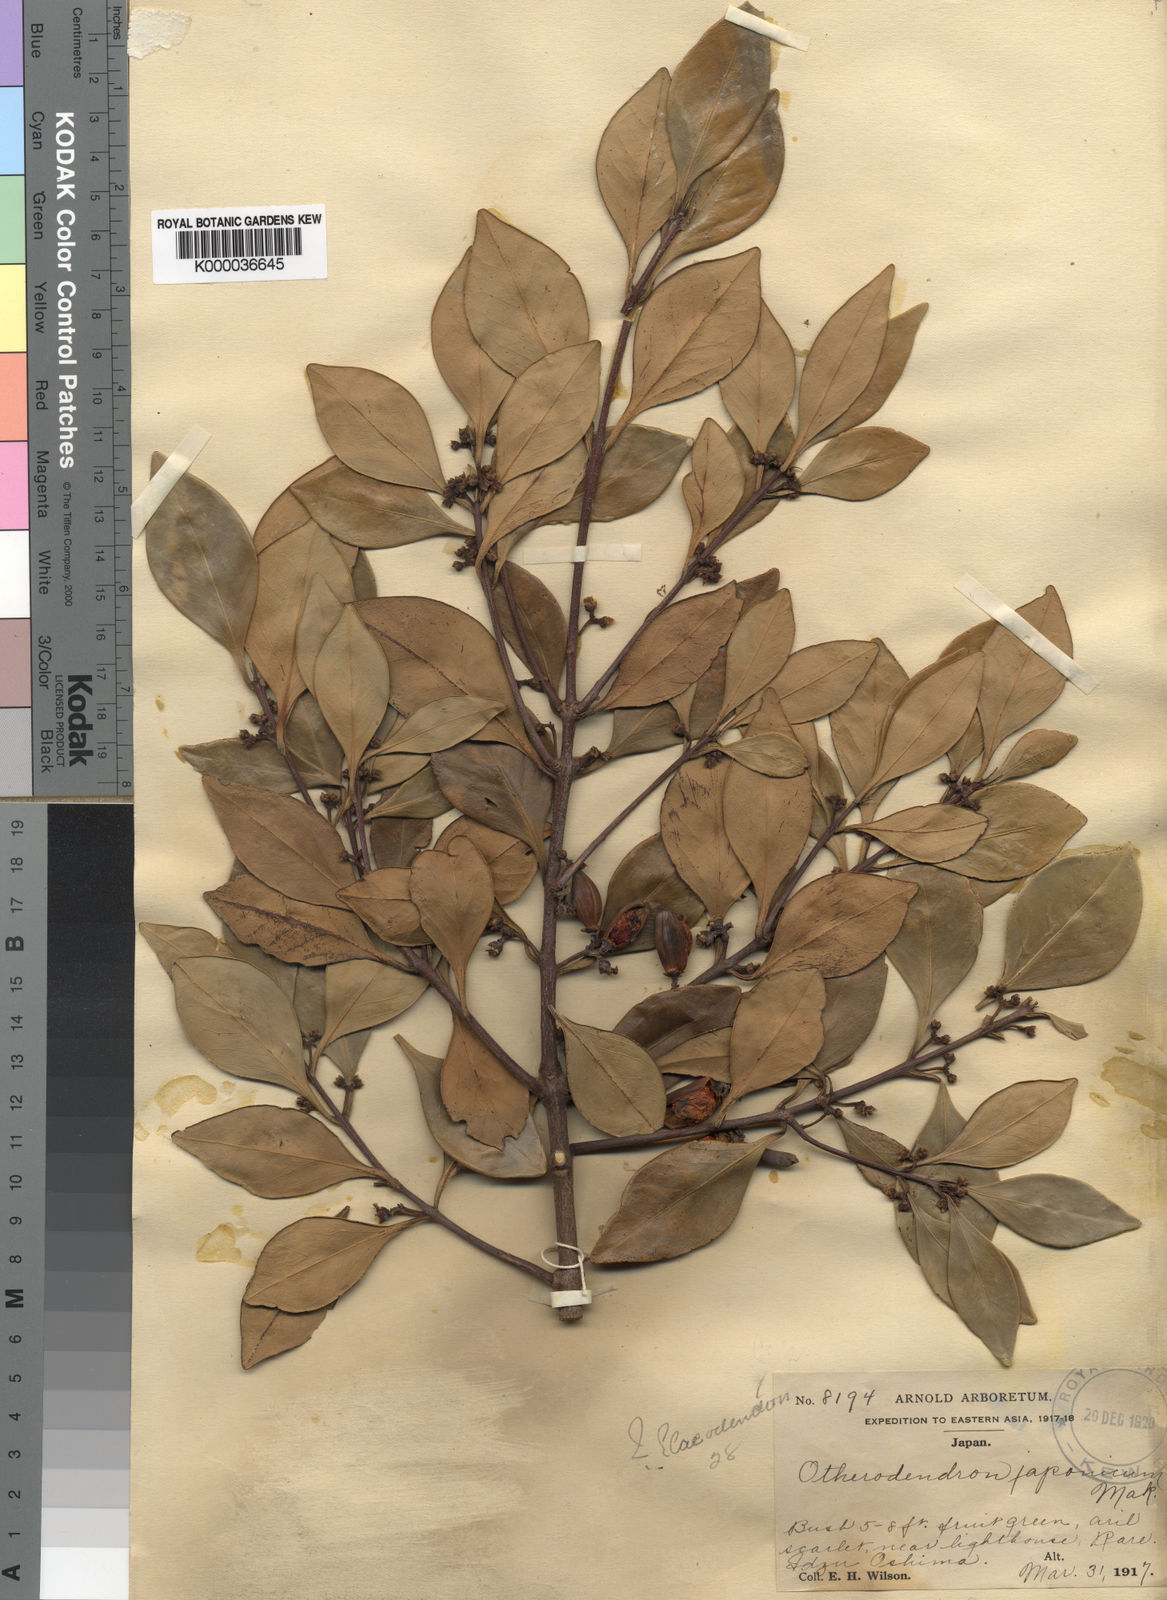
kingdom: Plantae
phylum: Tracheophyta
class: Magnoliopsida
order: Celastrales
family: Celastraceae
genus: Microtropis
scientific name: Microtropis japonica
